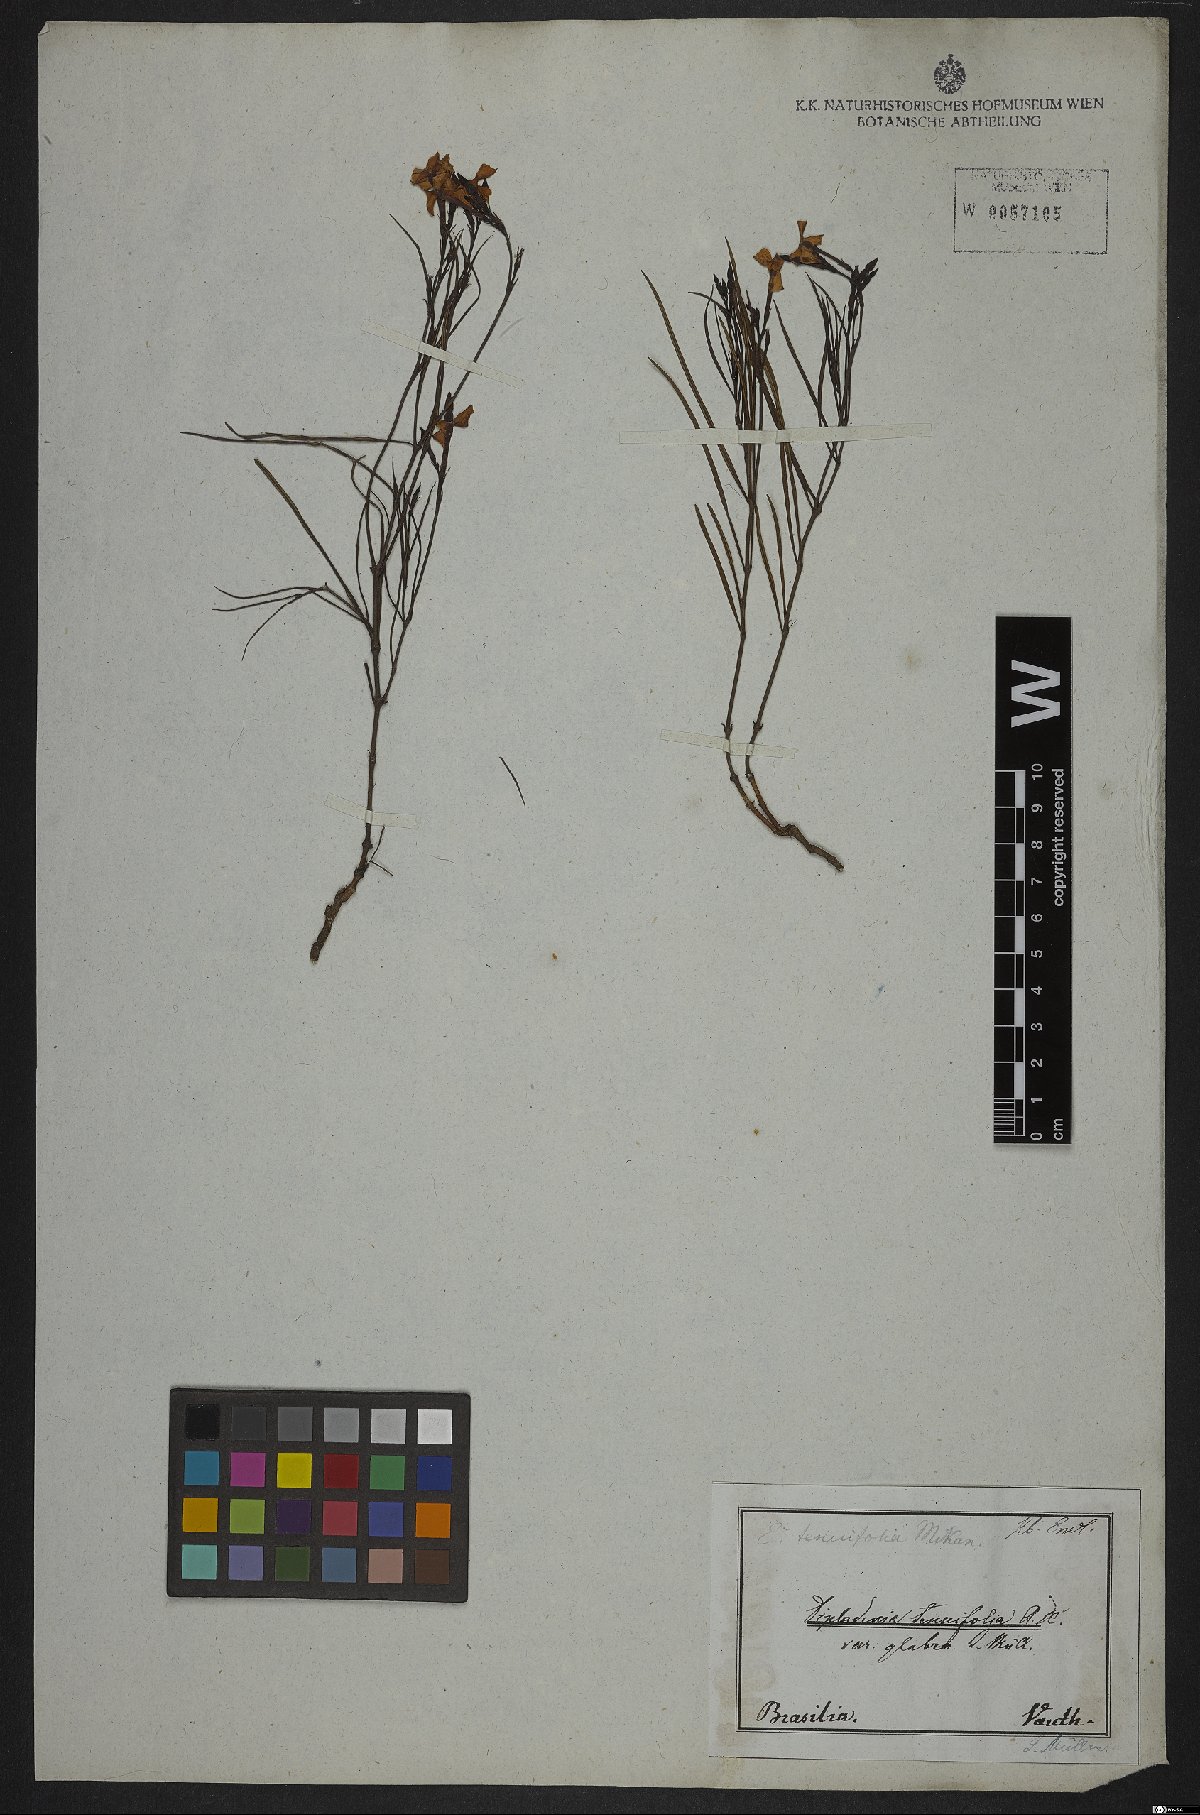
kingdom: Plantae
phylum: Tracheophyta
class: Magnoliopsida
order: Gentianales
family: Apocynaceae
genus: Mandevilla
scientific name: Mandevilla tenuifolia
